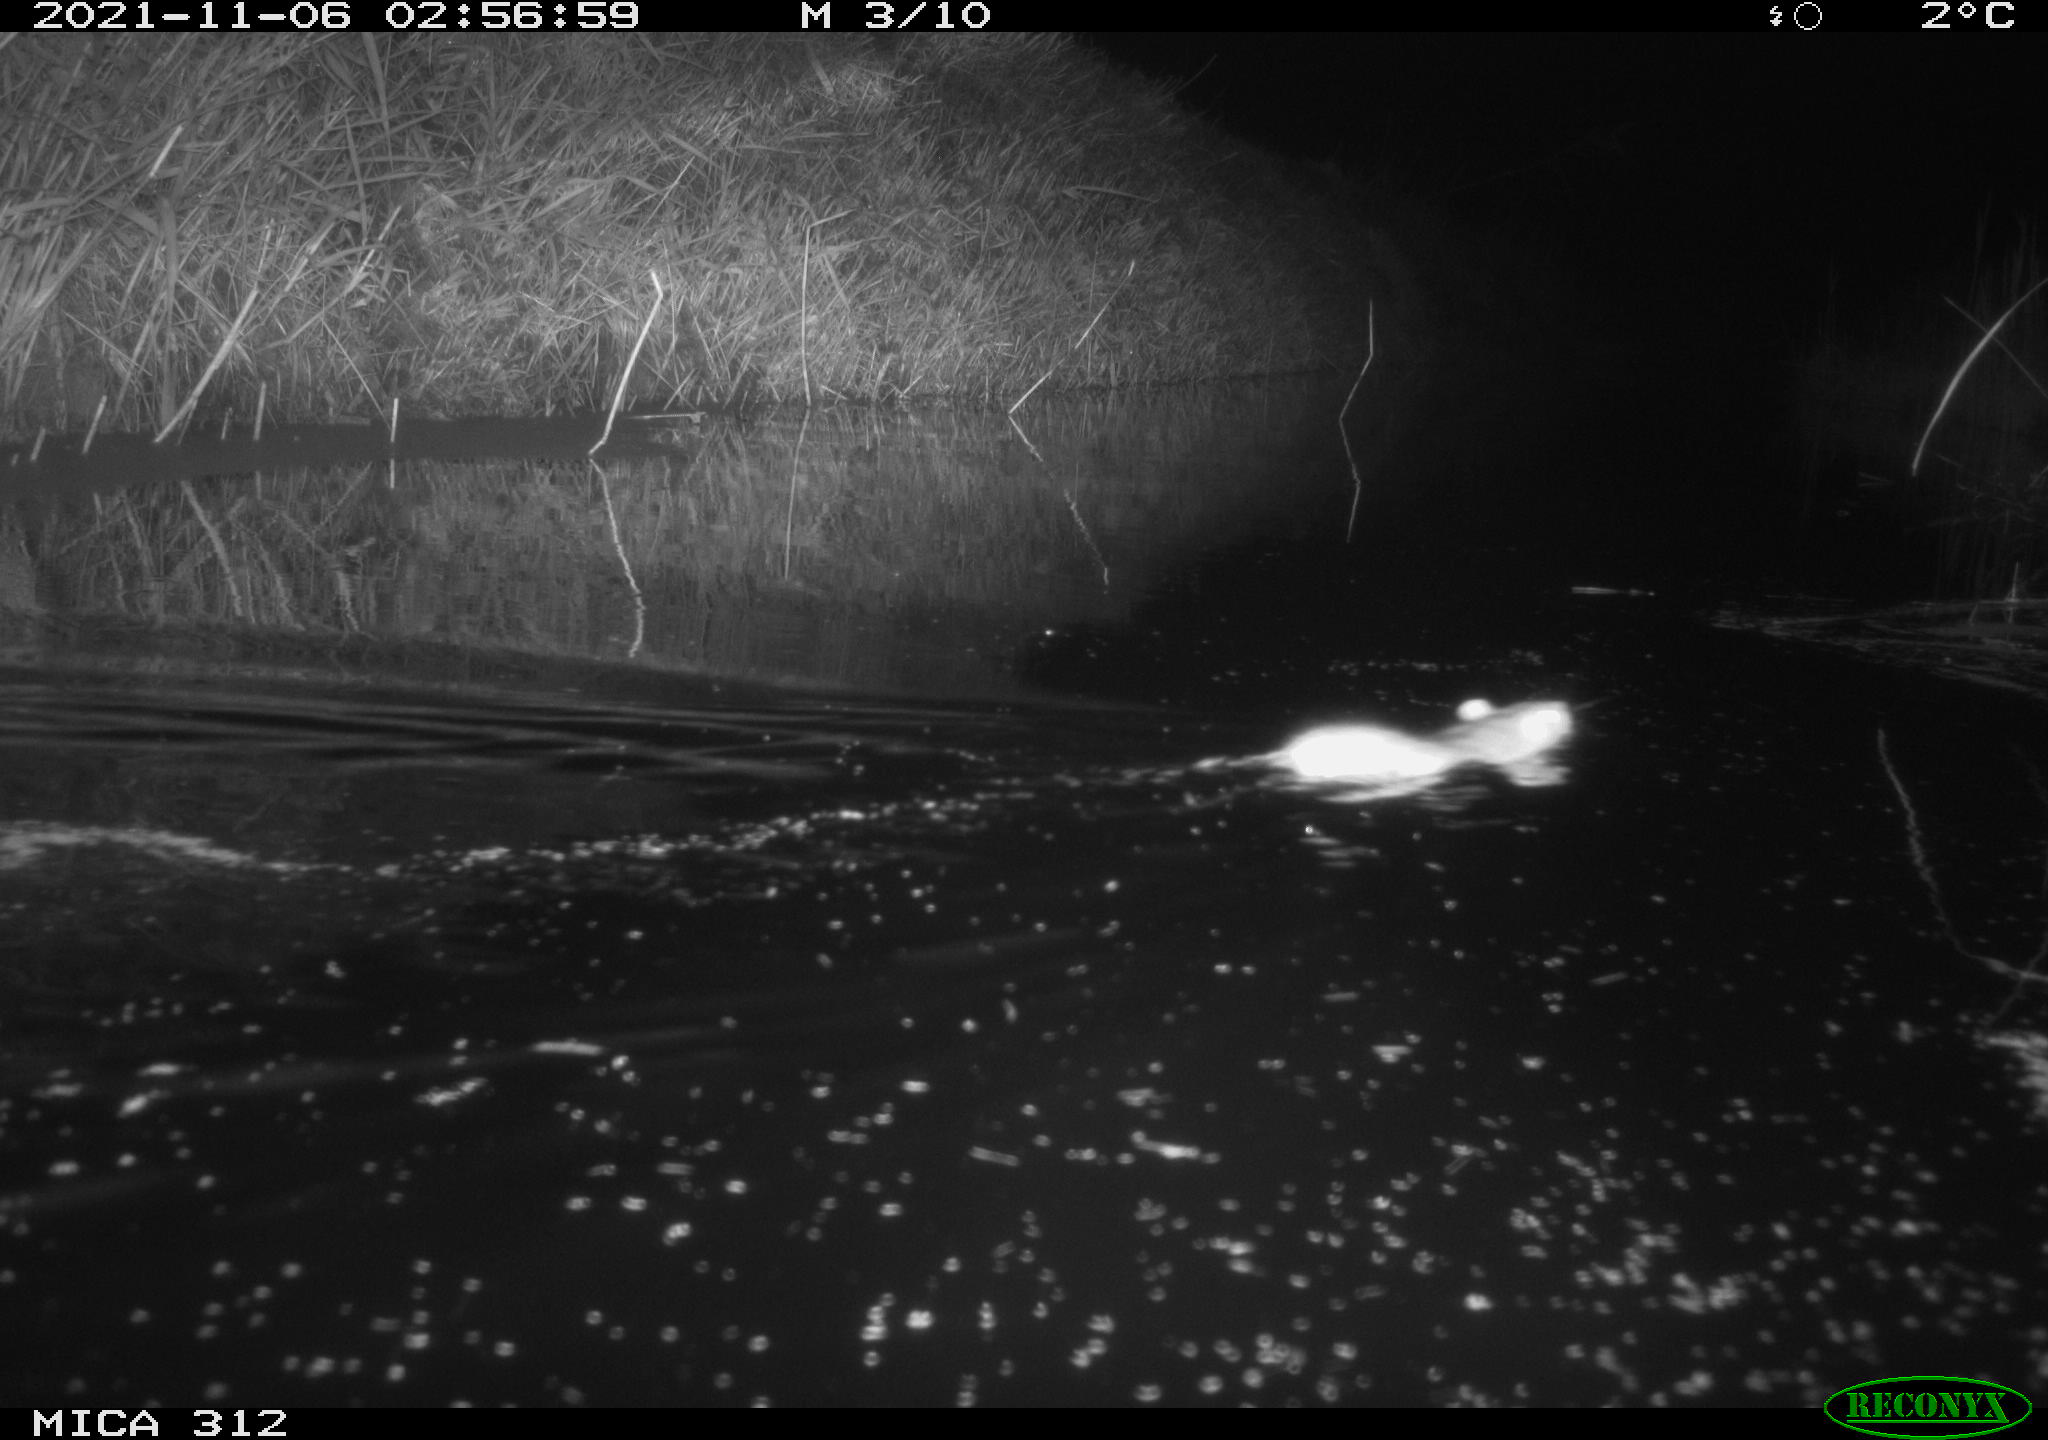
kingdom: Animalia
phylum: Chordata
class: Mammalia
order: Rodentia
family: Muridae
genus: Rattus
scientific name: Rattus norvegicus
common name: Brown rat
